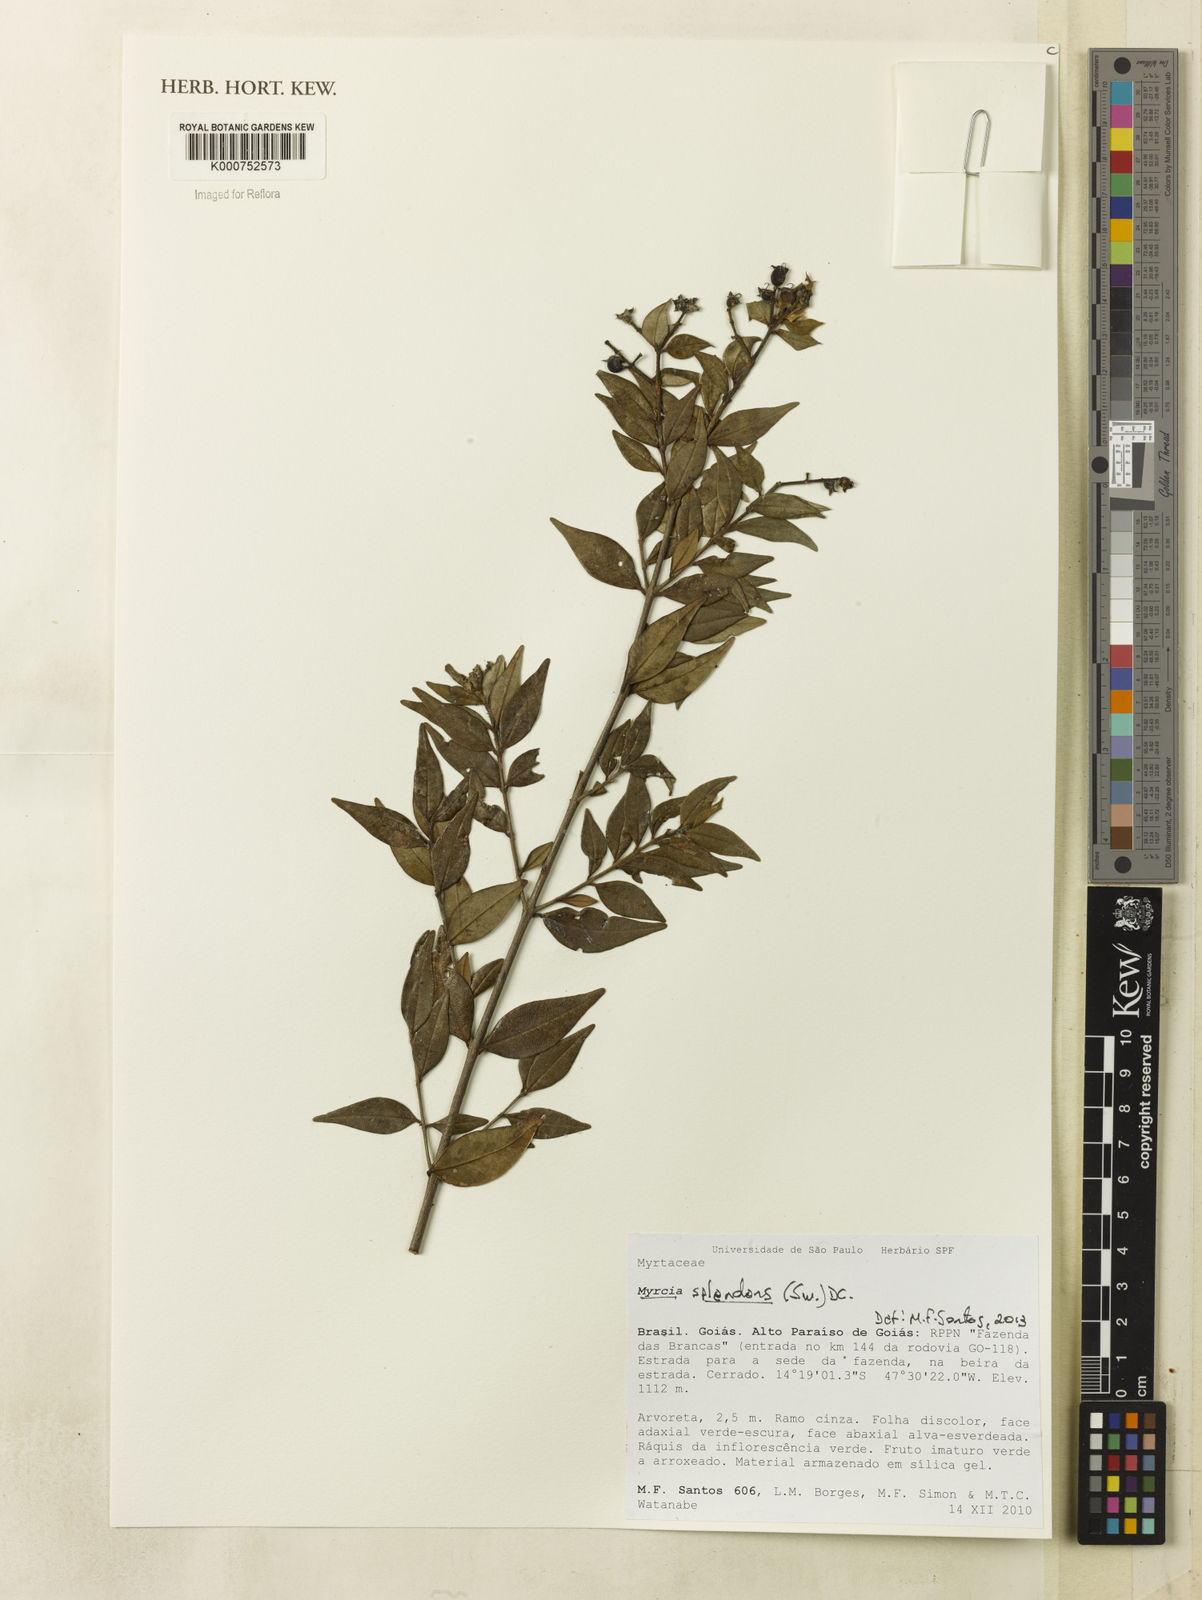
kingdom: Plantae
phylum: Tracheophyta
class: Magnoliopsida
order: Myrtales
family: Myrtaceae
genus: Myrcia
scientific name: Myrcia splendens
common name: Surinam cherry
